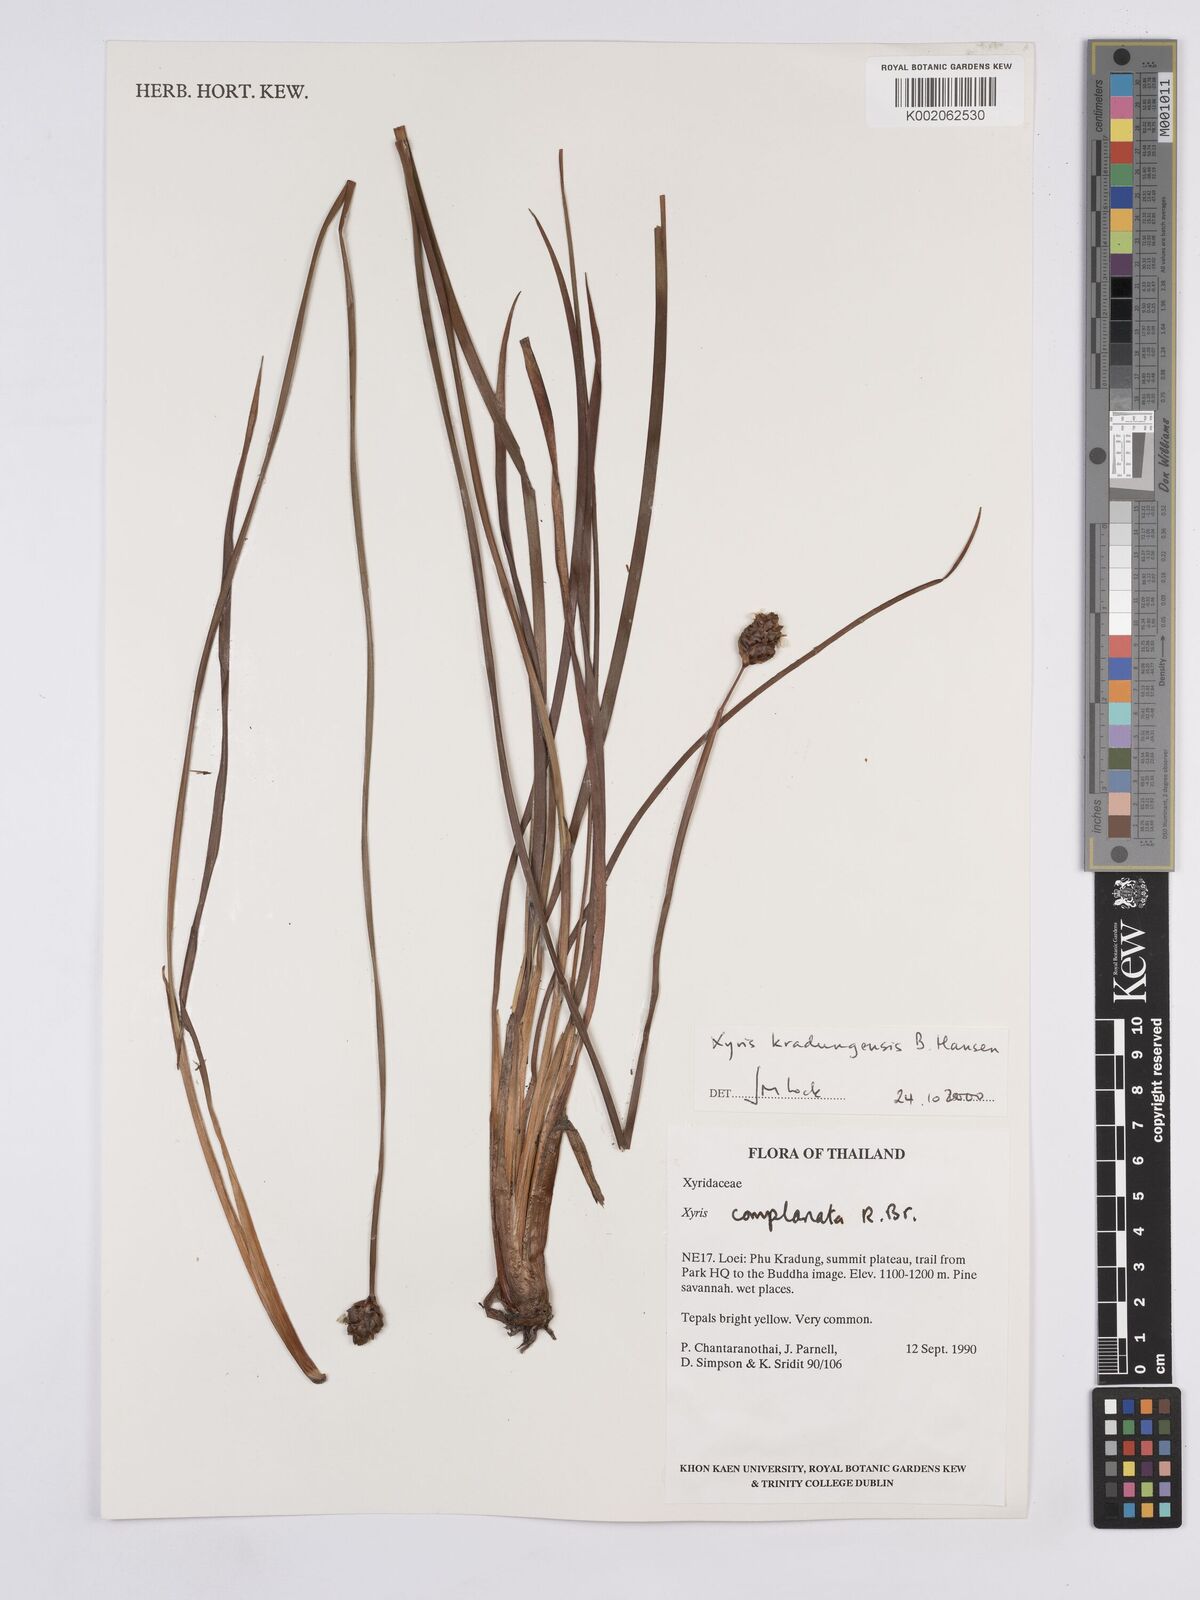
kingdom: Plantae
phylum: Tracheophyta
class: Liliopsida
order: Poales
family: Xyridaceae
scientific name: Xyridaceae
